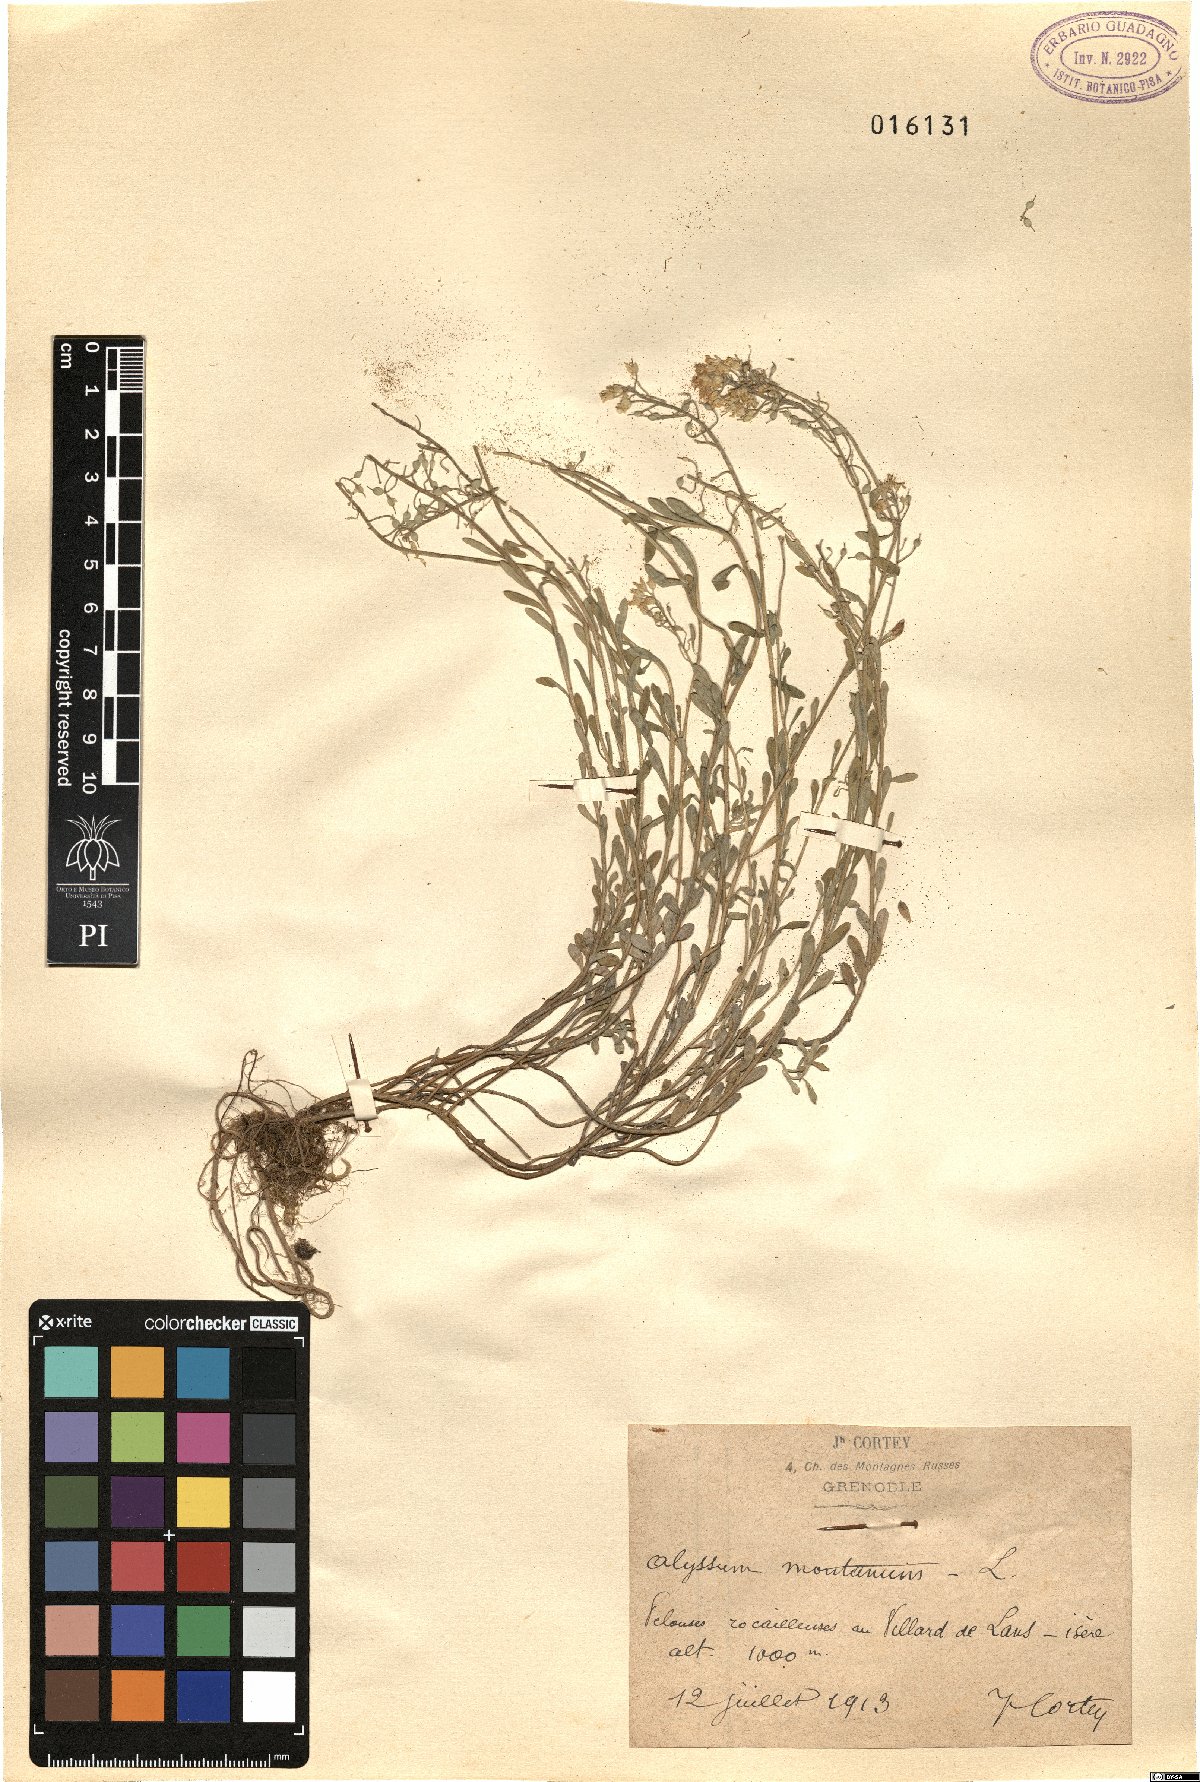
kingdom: Plantae
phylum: Tracheophyta
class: Magnoliopsida
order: Brassicales
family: Brassicaceae
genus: Alyssum
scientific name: Alyssum montanum
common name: Mountain alison
